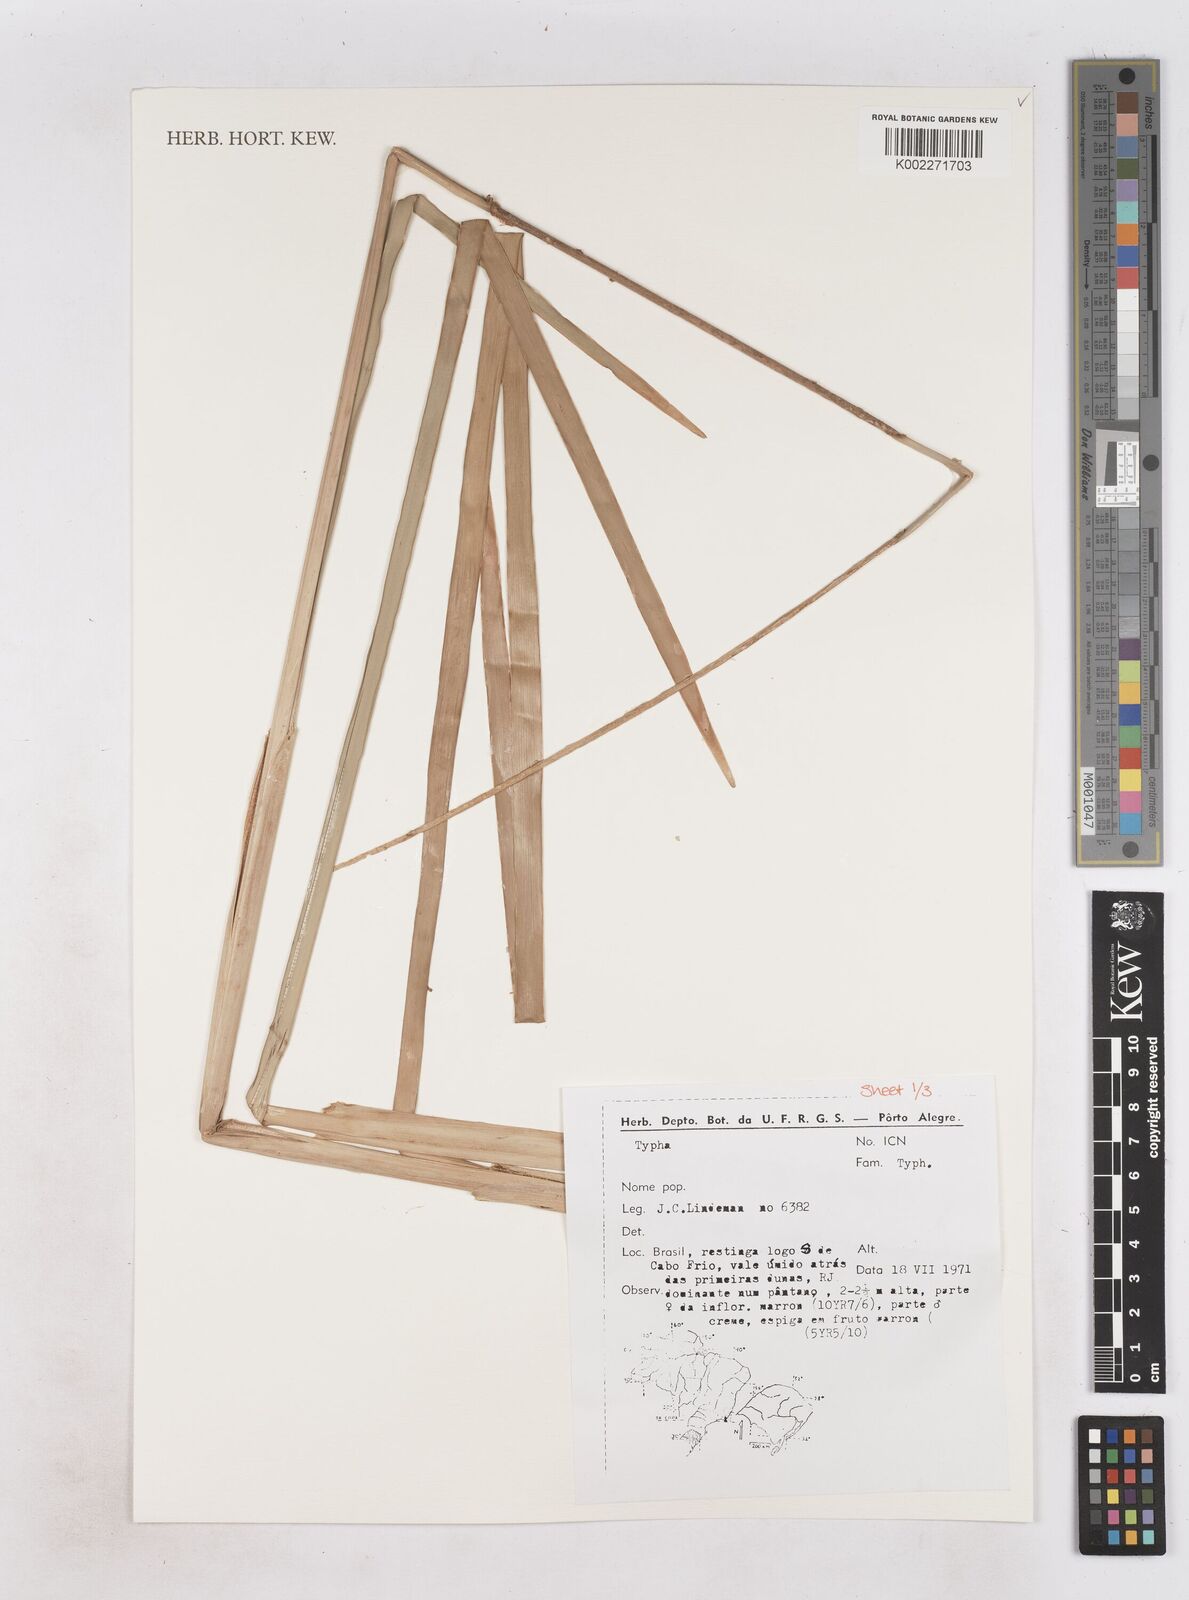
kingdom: Plantae
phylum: Tracheophyta
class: Liliopsida
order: Poales
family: Typhaceae
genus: Typha
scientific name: Typha
